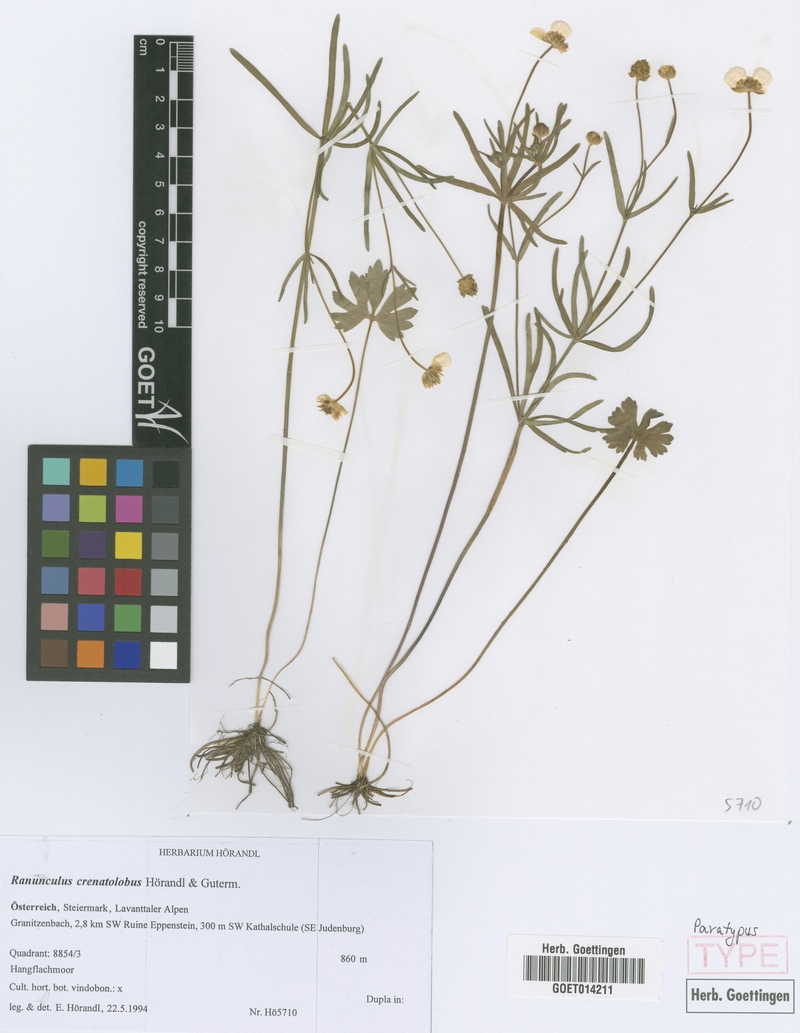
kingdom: Plantae
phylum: Tracheophyta
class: Magnoliopsida
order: Ranunculales
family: Ranunculaceae
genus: Ranunculus
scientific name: Ranunculus crenatolobus
